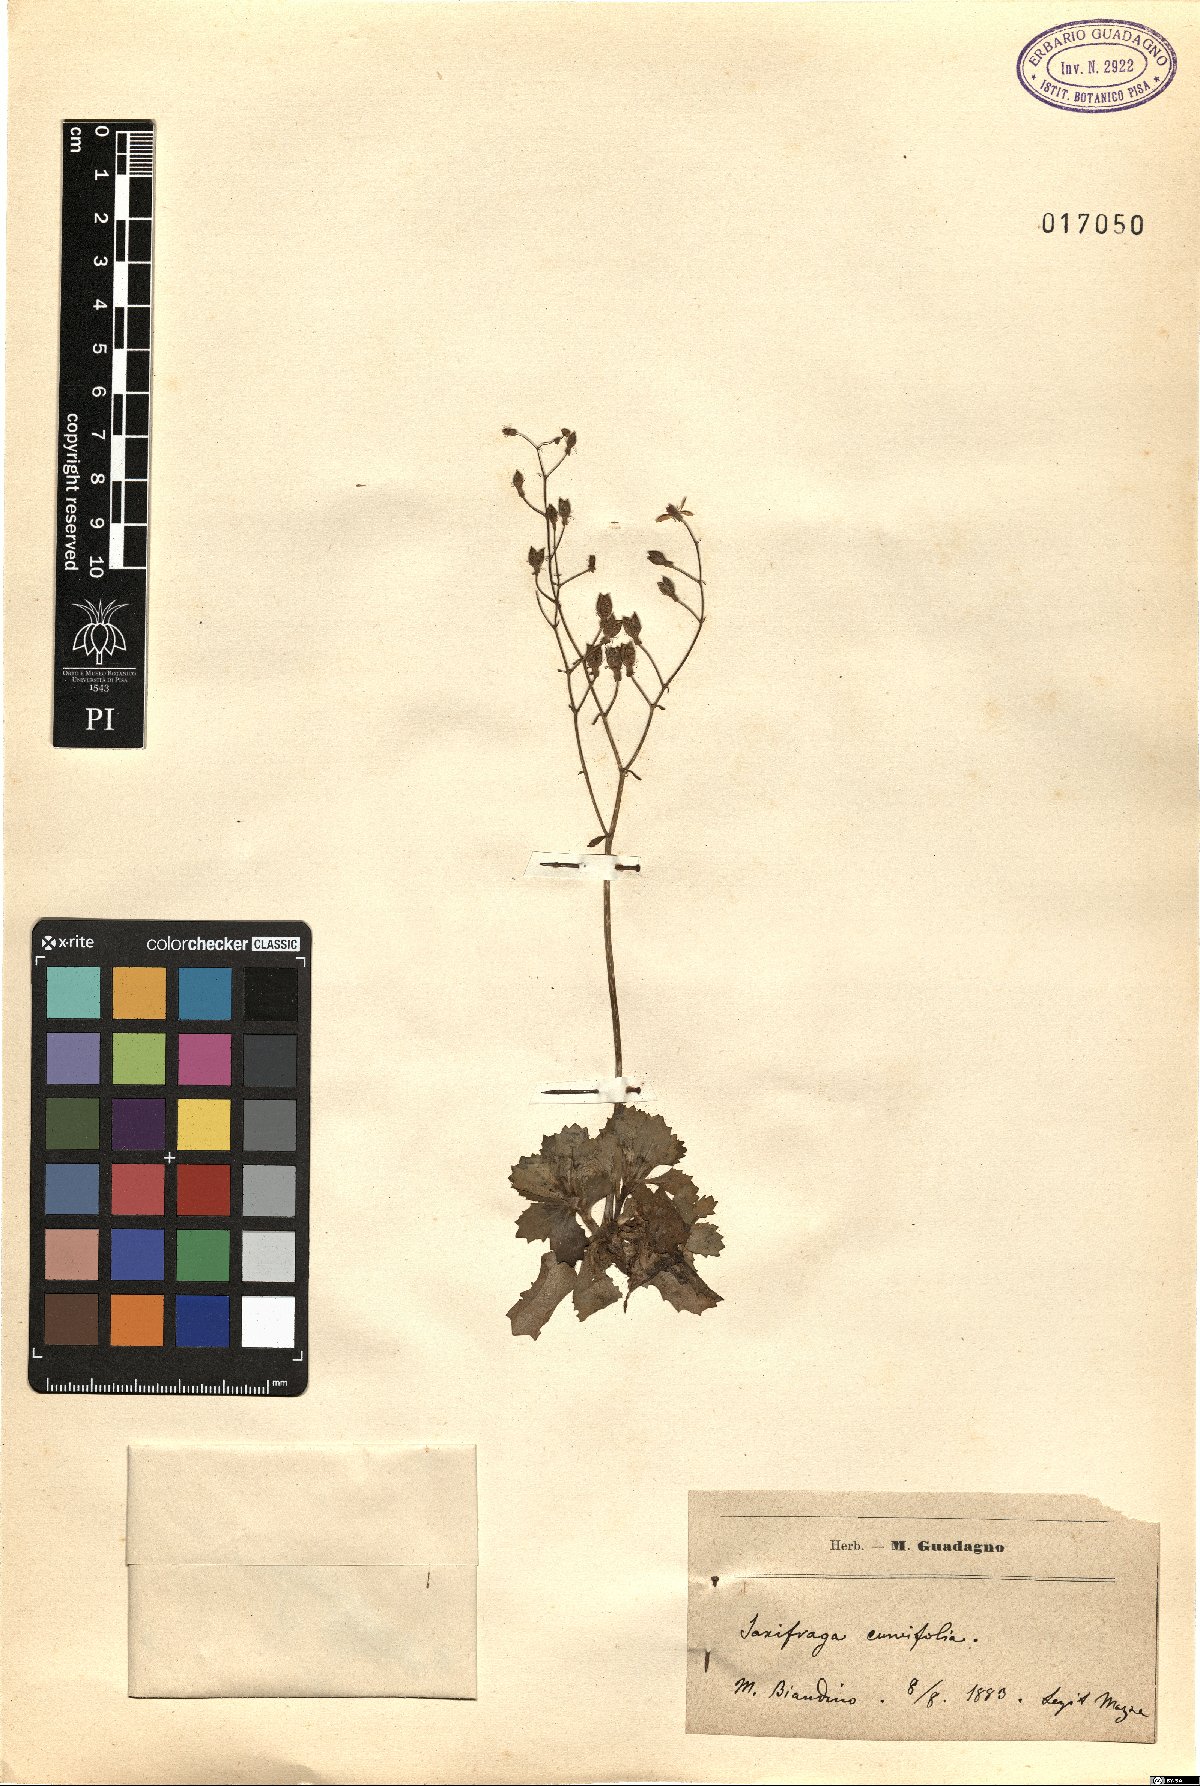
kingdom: Plantae
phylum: Tracheophyta
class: Magnoliopsida
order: Saxifragales
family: Saxifragaceae
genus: Saxifraga
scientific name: Saxifraga cuneifolia
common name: Lesser londonpride
